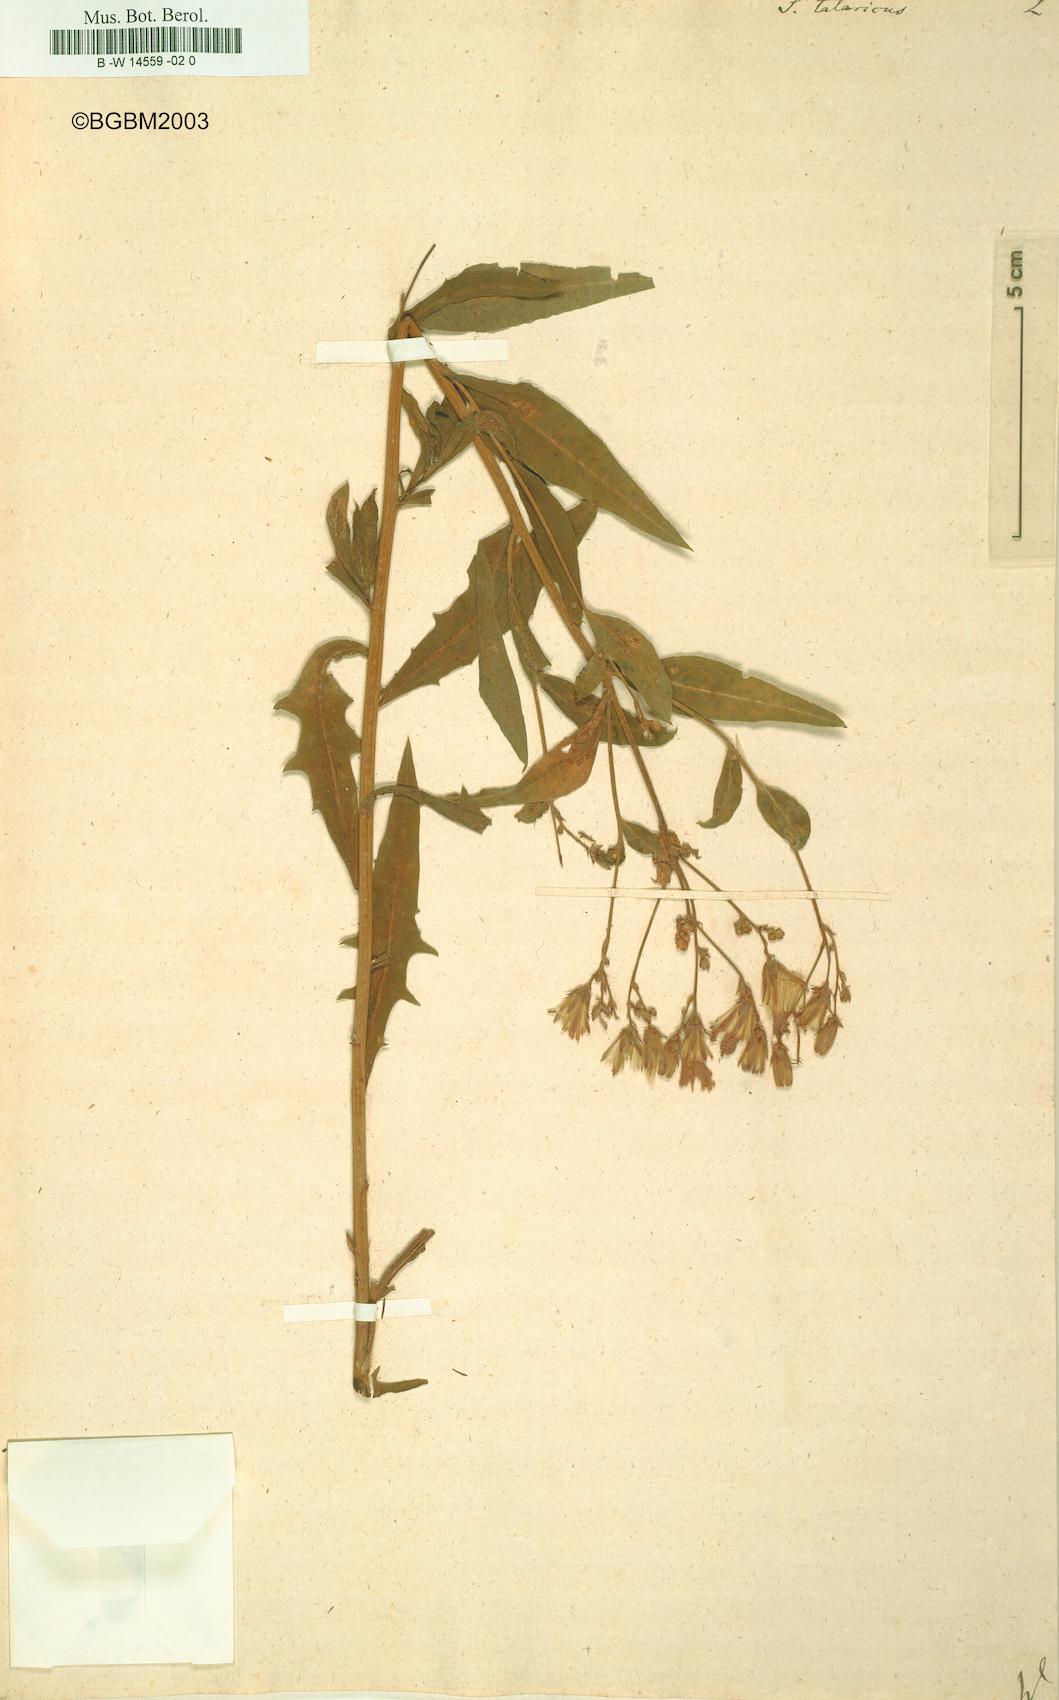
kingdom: Plantae
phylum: Tracheophyta
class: Magnoliopsida
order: Asterales
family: Asteraceae
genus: Lactuca
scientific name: Lactuca tatarica
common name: Blue lettuce
